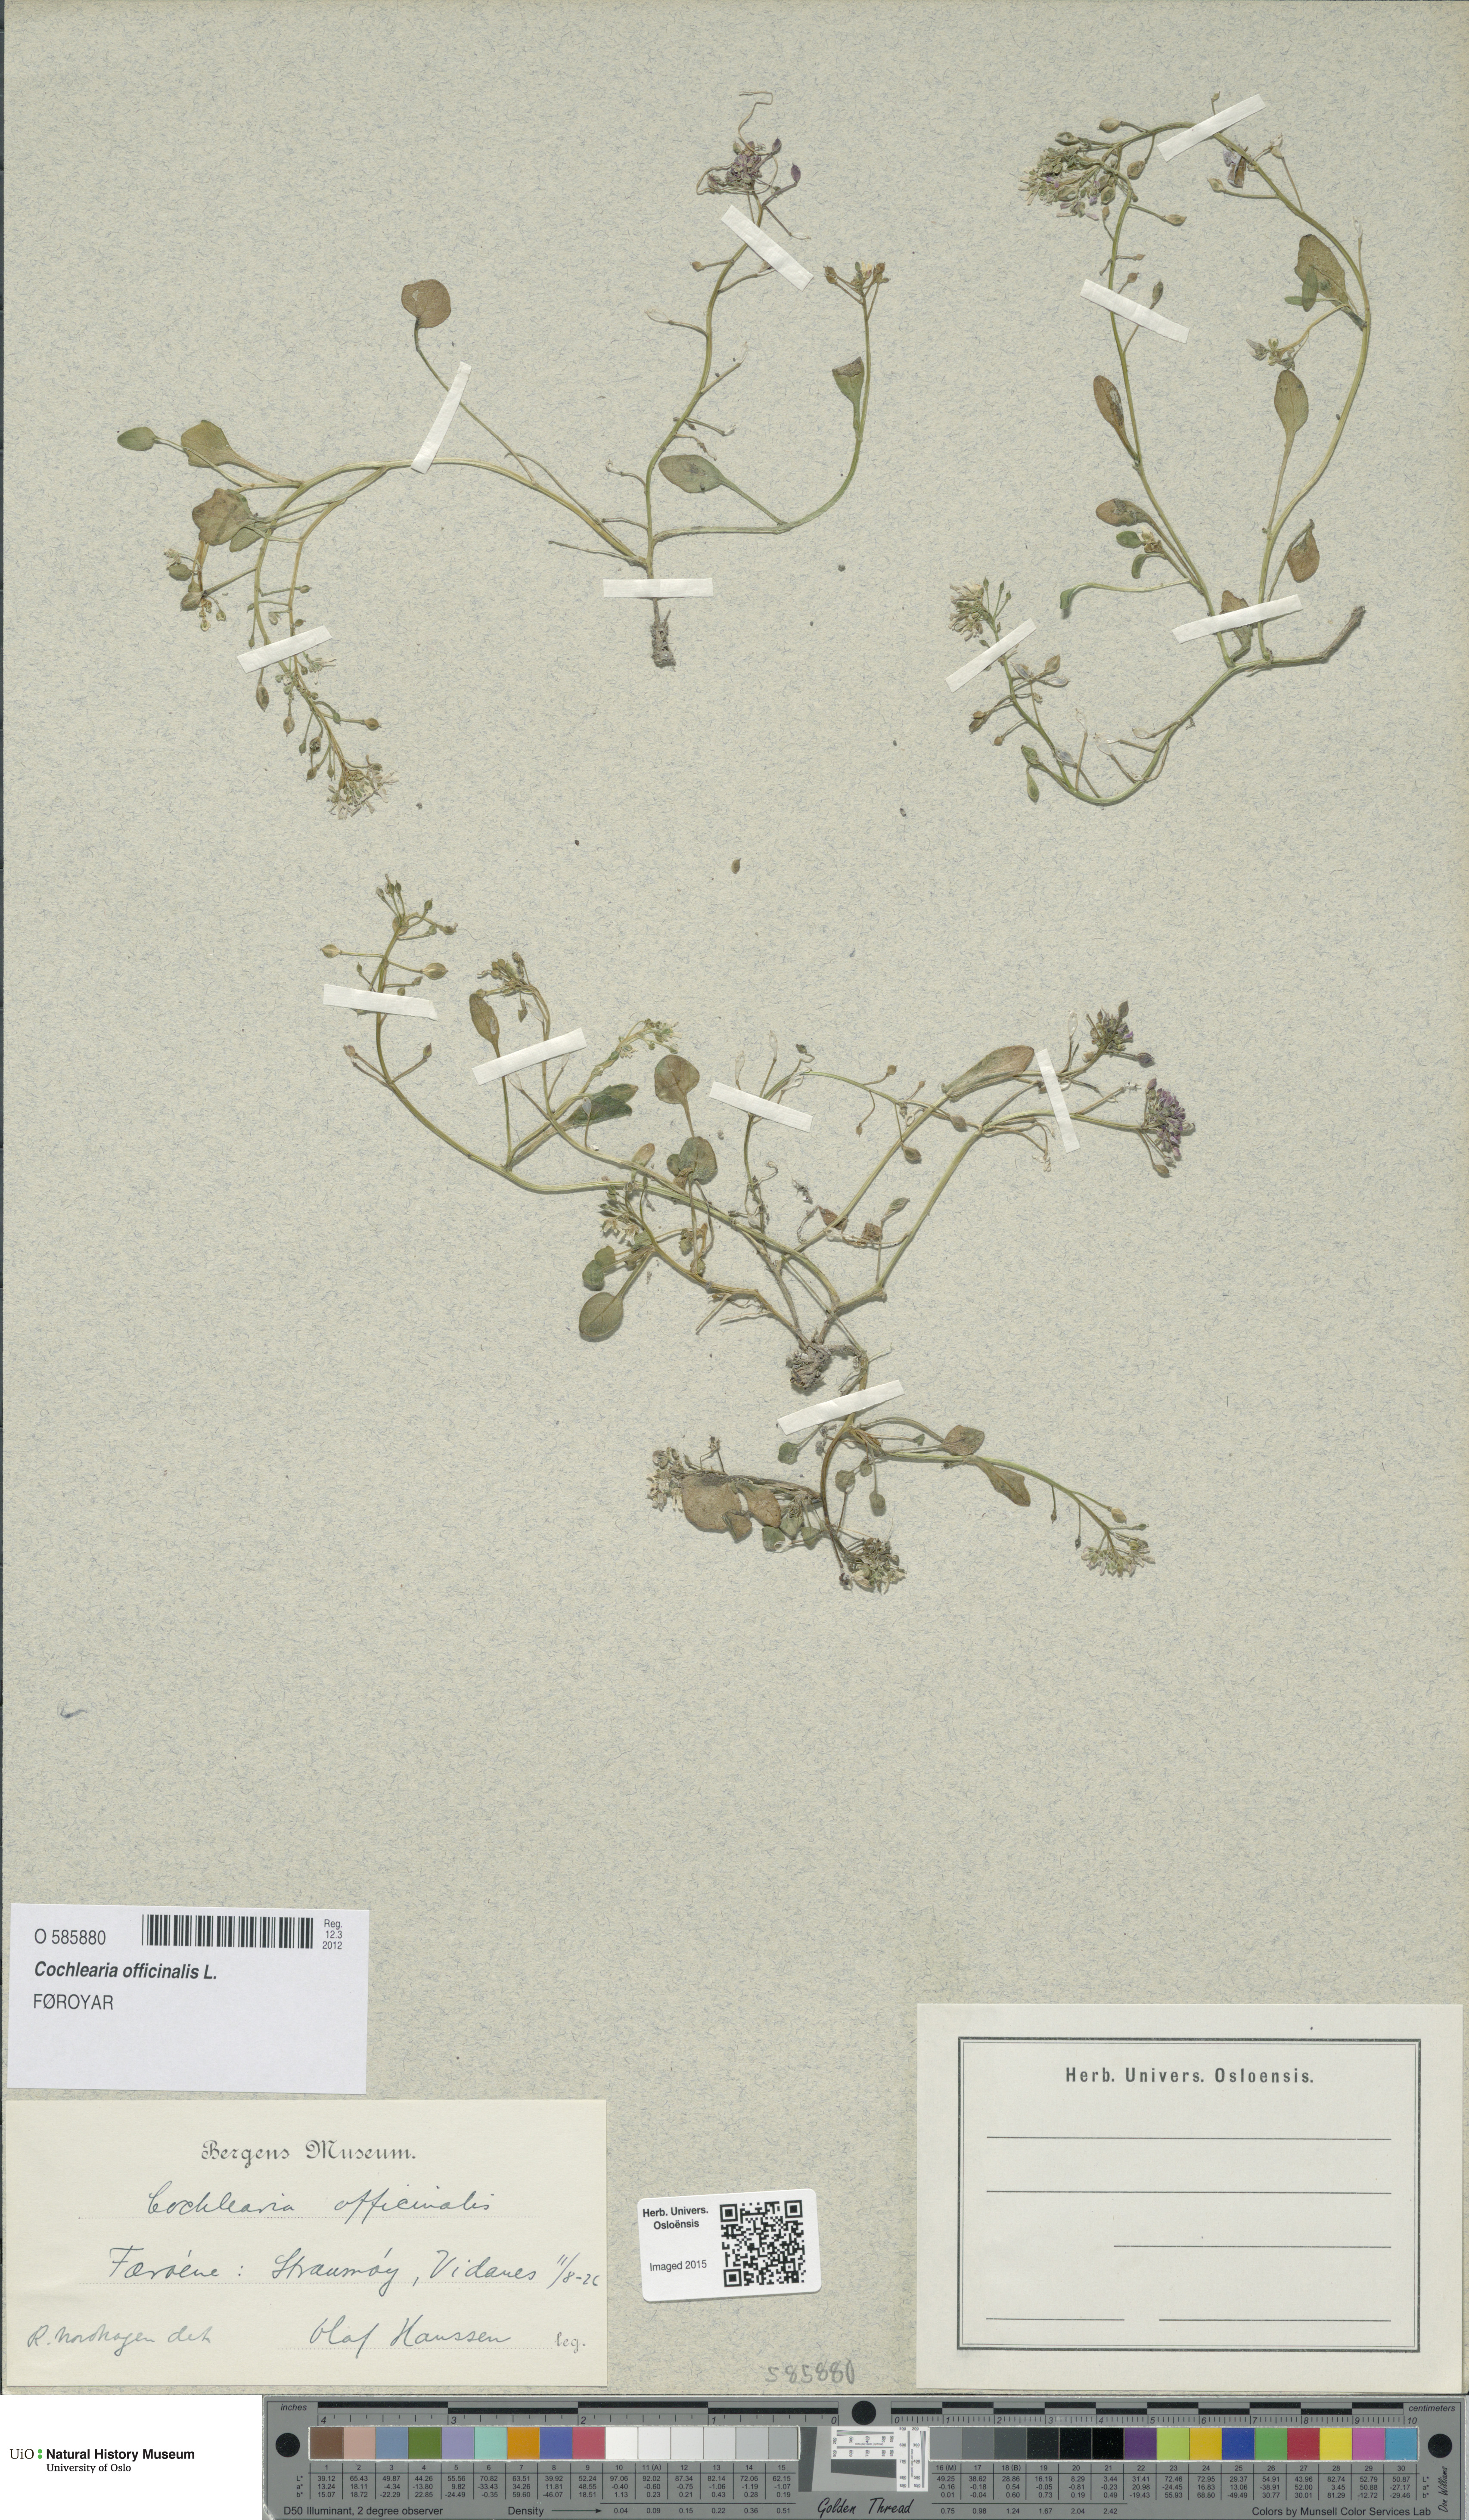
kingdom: Plantae
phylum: Tracheophyta
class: Magnoliopsida
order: Brassicales
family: Brassicaceae
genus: Cochlearia
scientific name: Cochlearia officinalis
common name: Scurvy-grass
